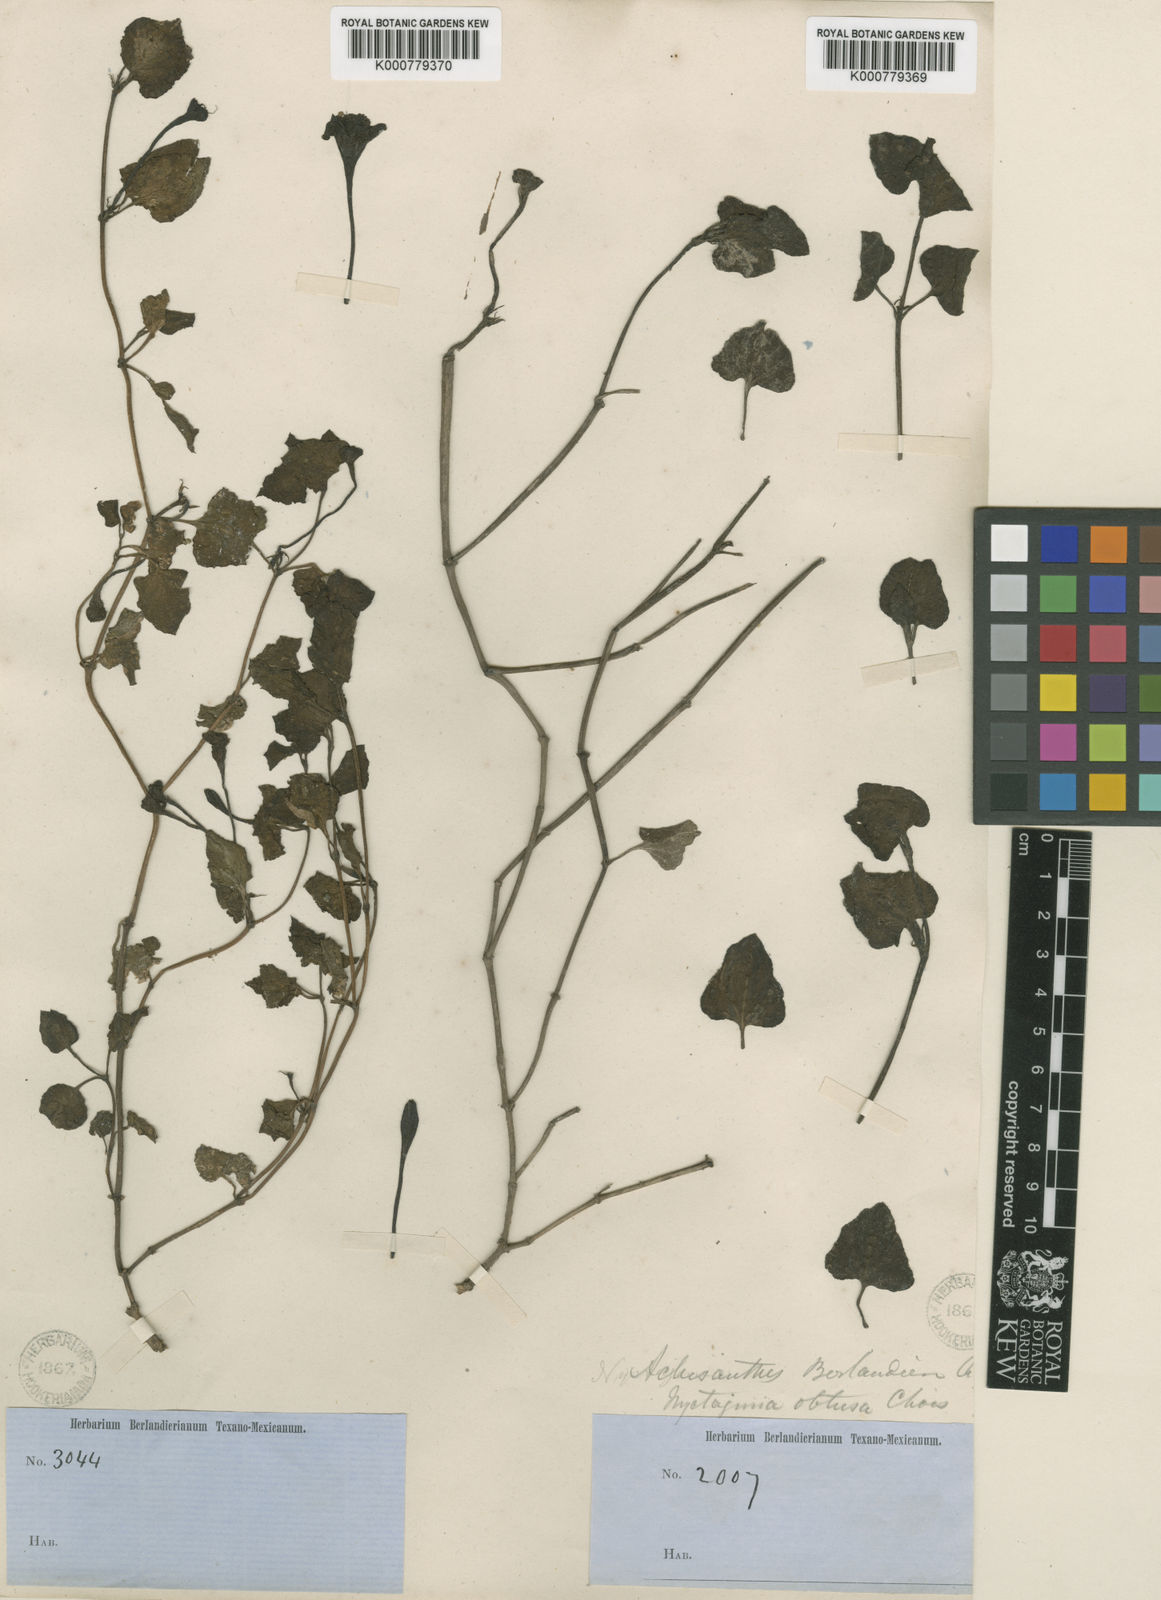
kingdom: Plantae
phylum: Tracheophyta
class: Magnoliopsida
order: Caryophyllales
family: Nyctaginaceae
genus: Acleisanthes
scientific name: Acleisanthes obtusa
